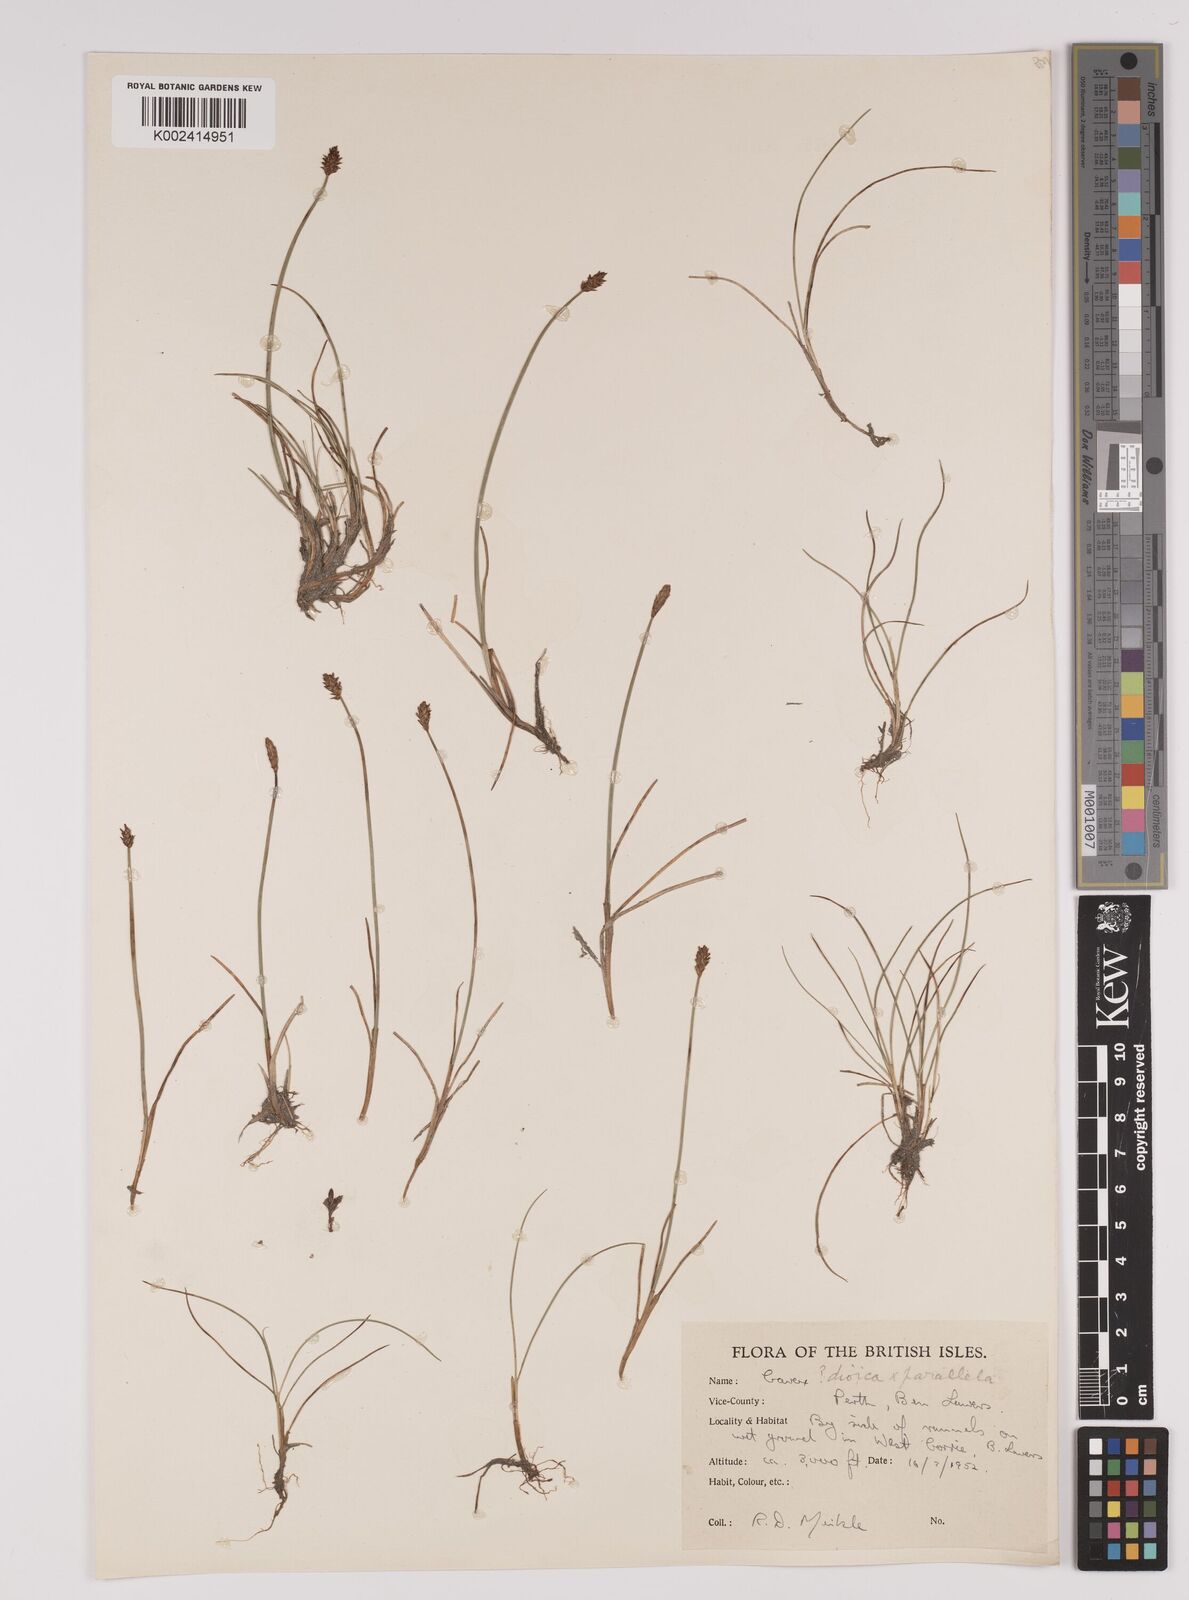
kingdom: Plantae
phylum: Tracheophyta
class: Liliopsida
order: Poales
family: Cyperaceae
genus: Carex
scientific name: Carex dioica
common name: Dioecious sedge
